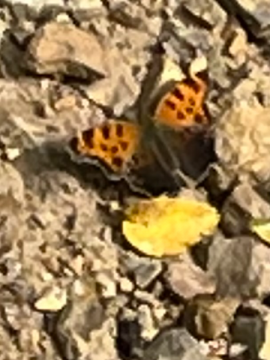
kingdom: Animalia
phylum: Arthropoda
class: Insecta
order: Lepidoptera
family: Nymphalidae
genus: Polygonia
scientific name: Polygonia comma
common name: Eastern Comma
